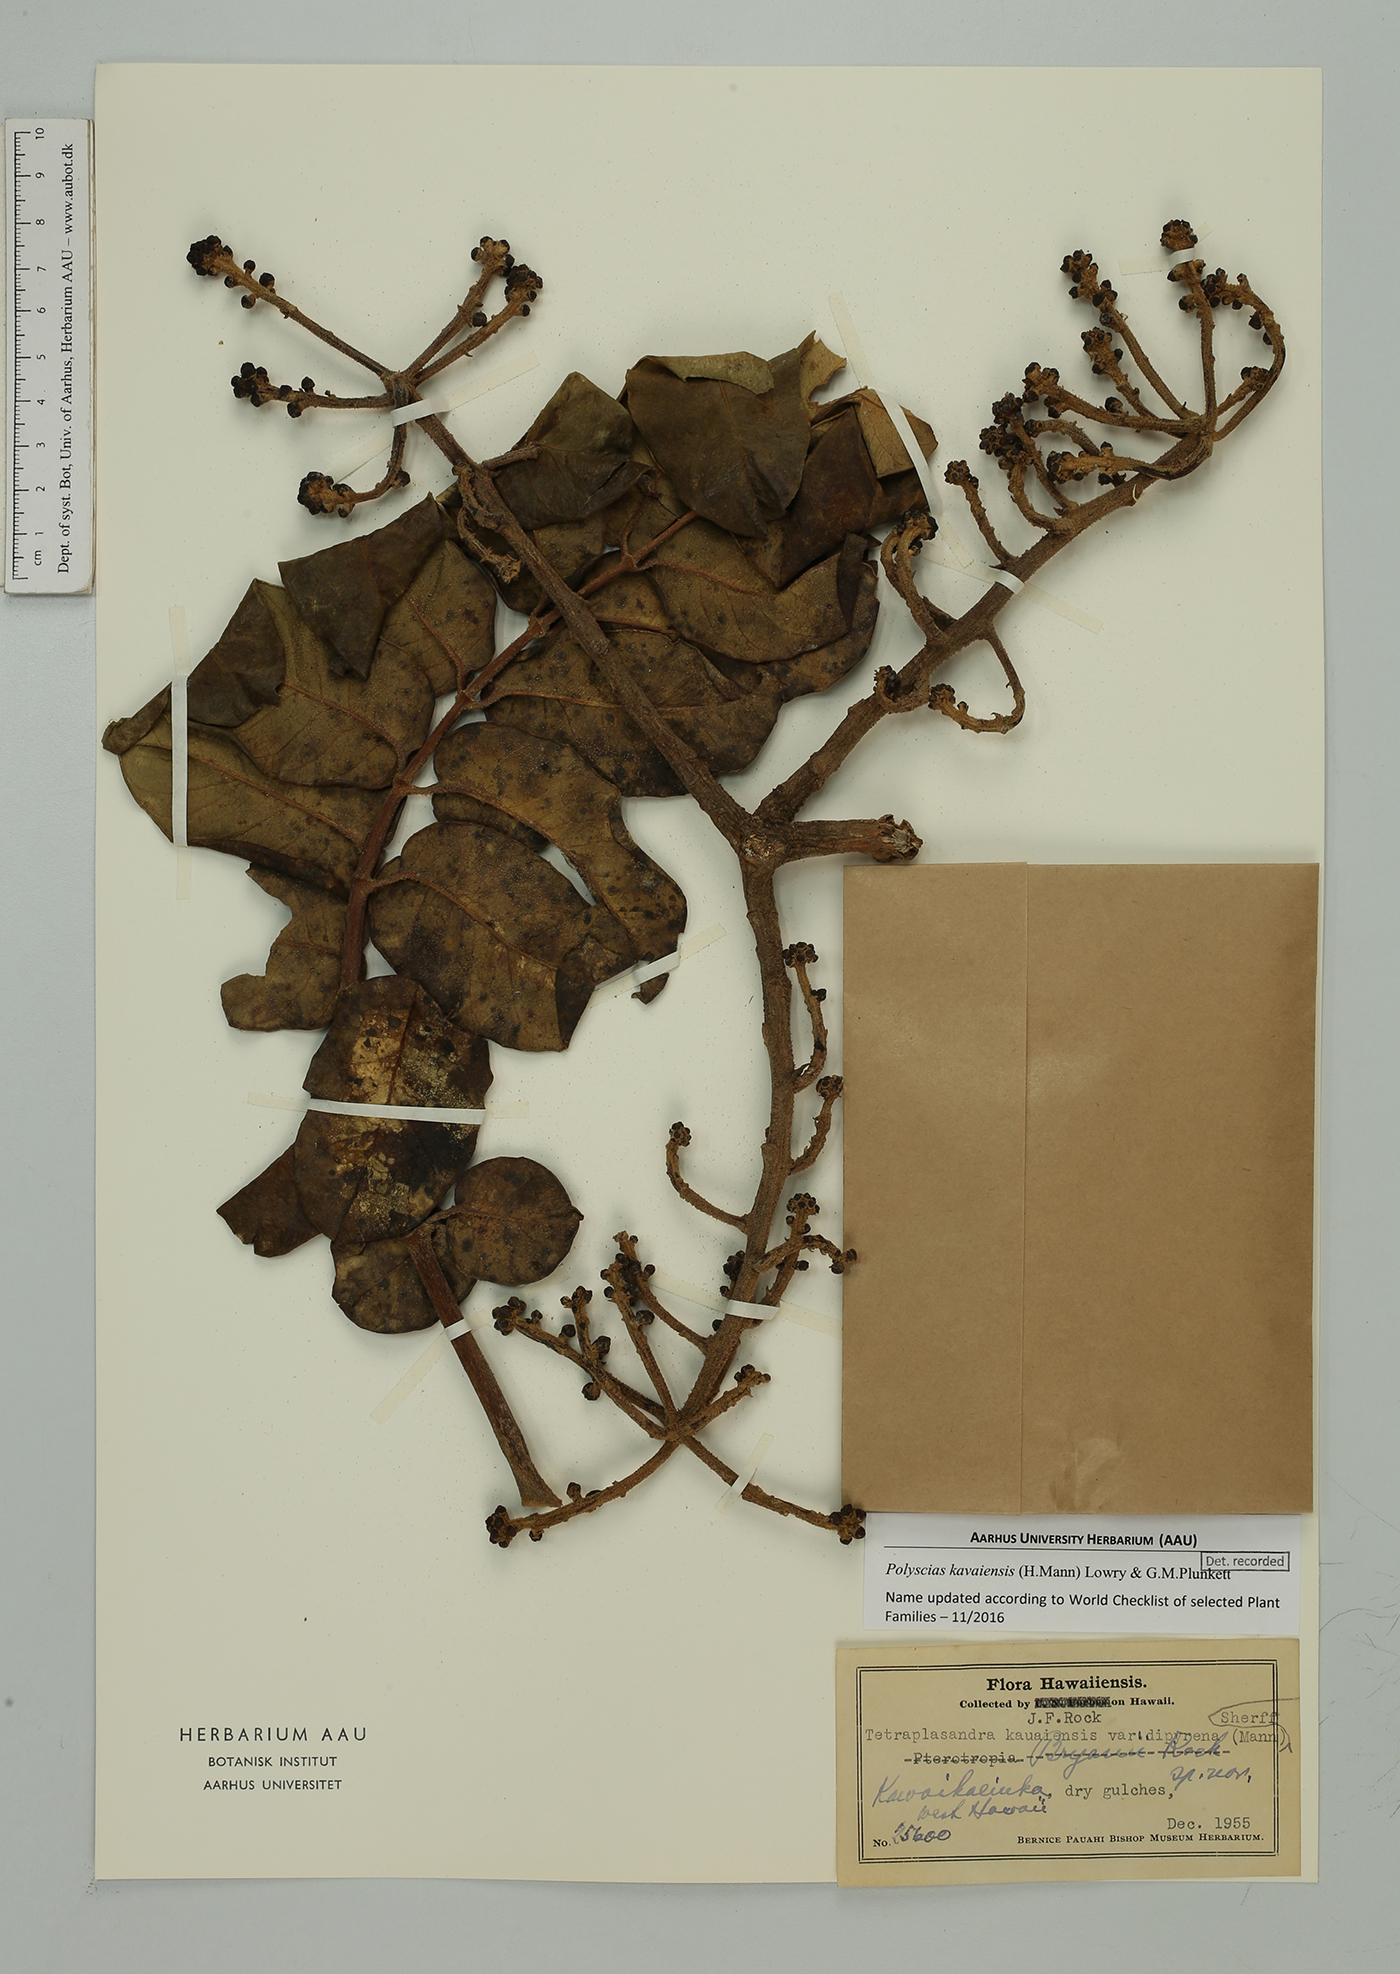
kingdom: Plantae
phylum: Tracheophyta
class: Magnoliopsida
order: Apiales
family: Araliaceae
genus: Polyscias
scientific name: Polyscias kavaiensis
